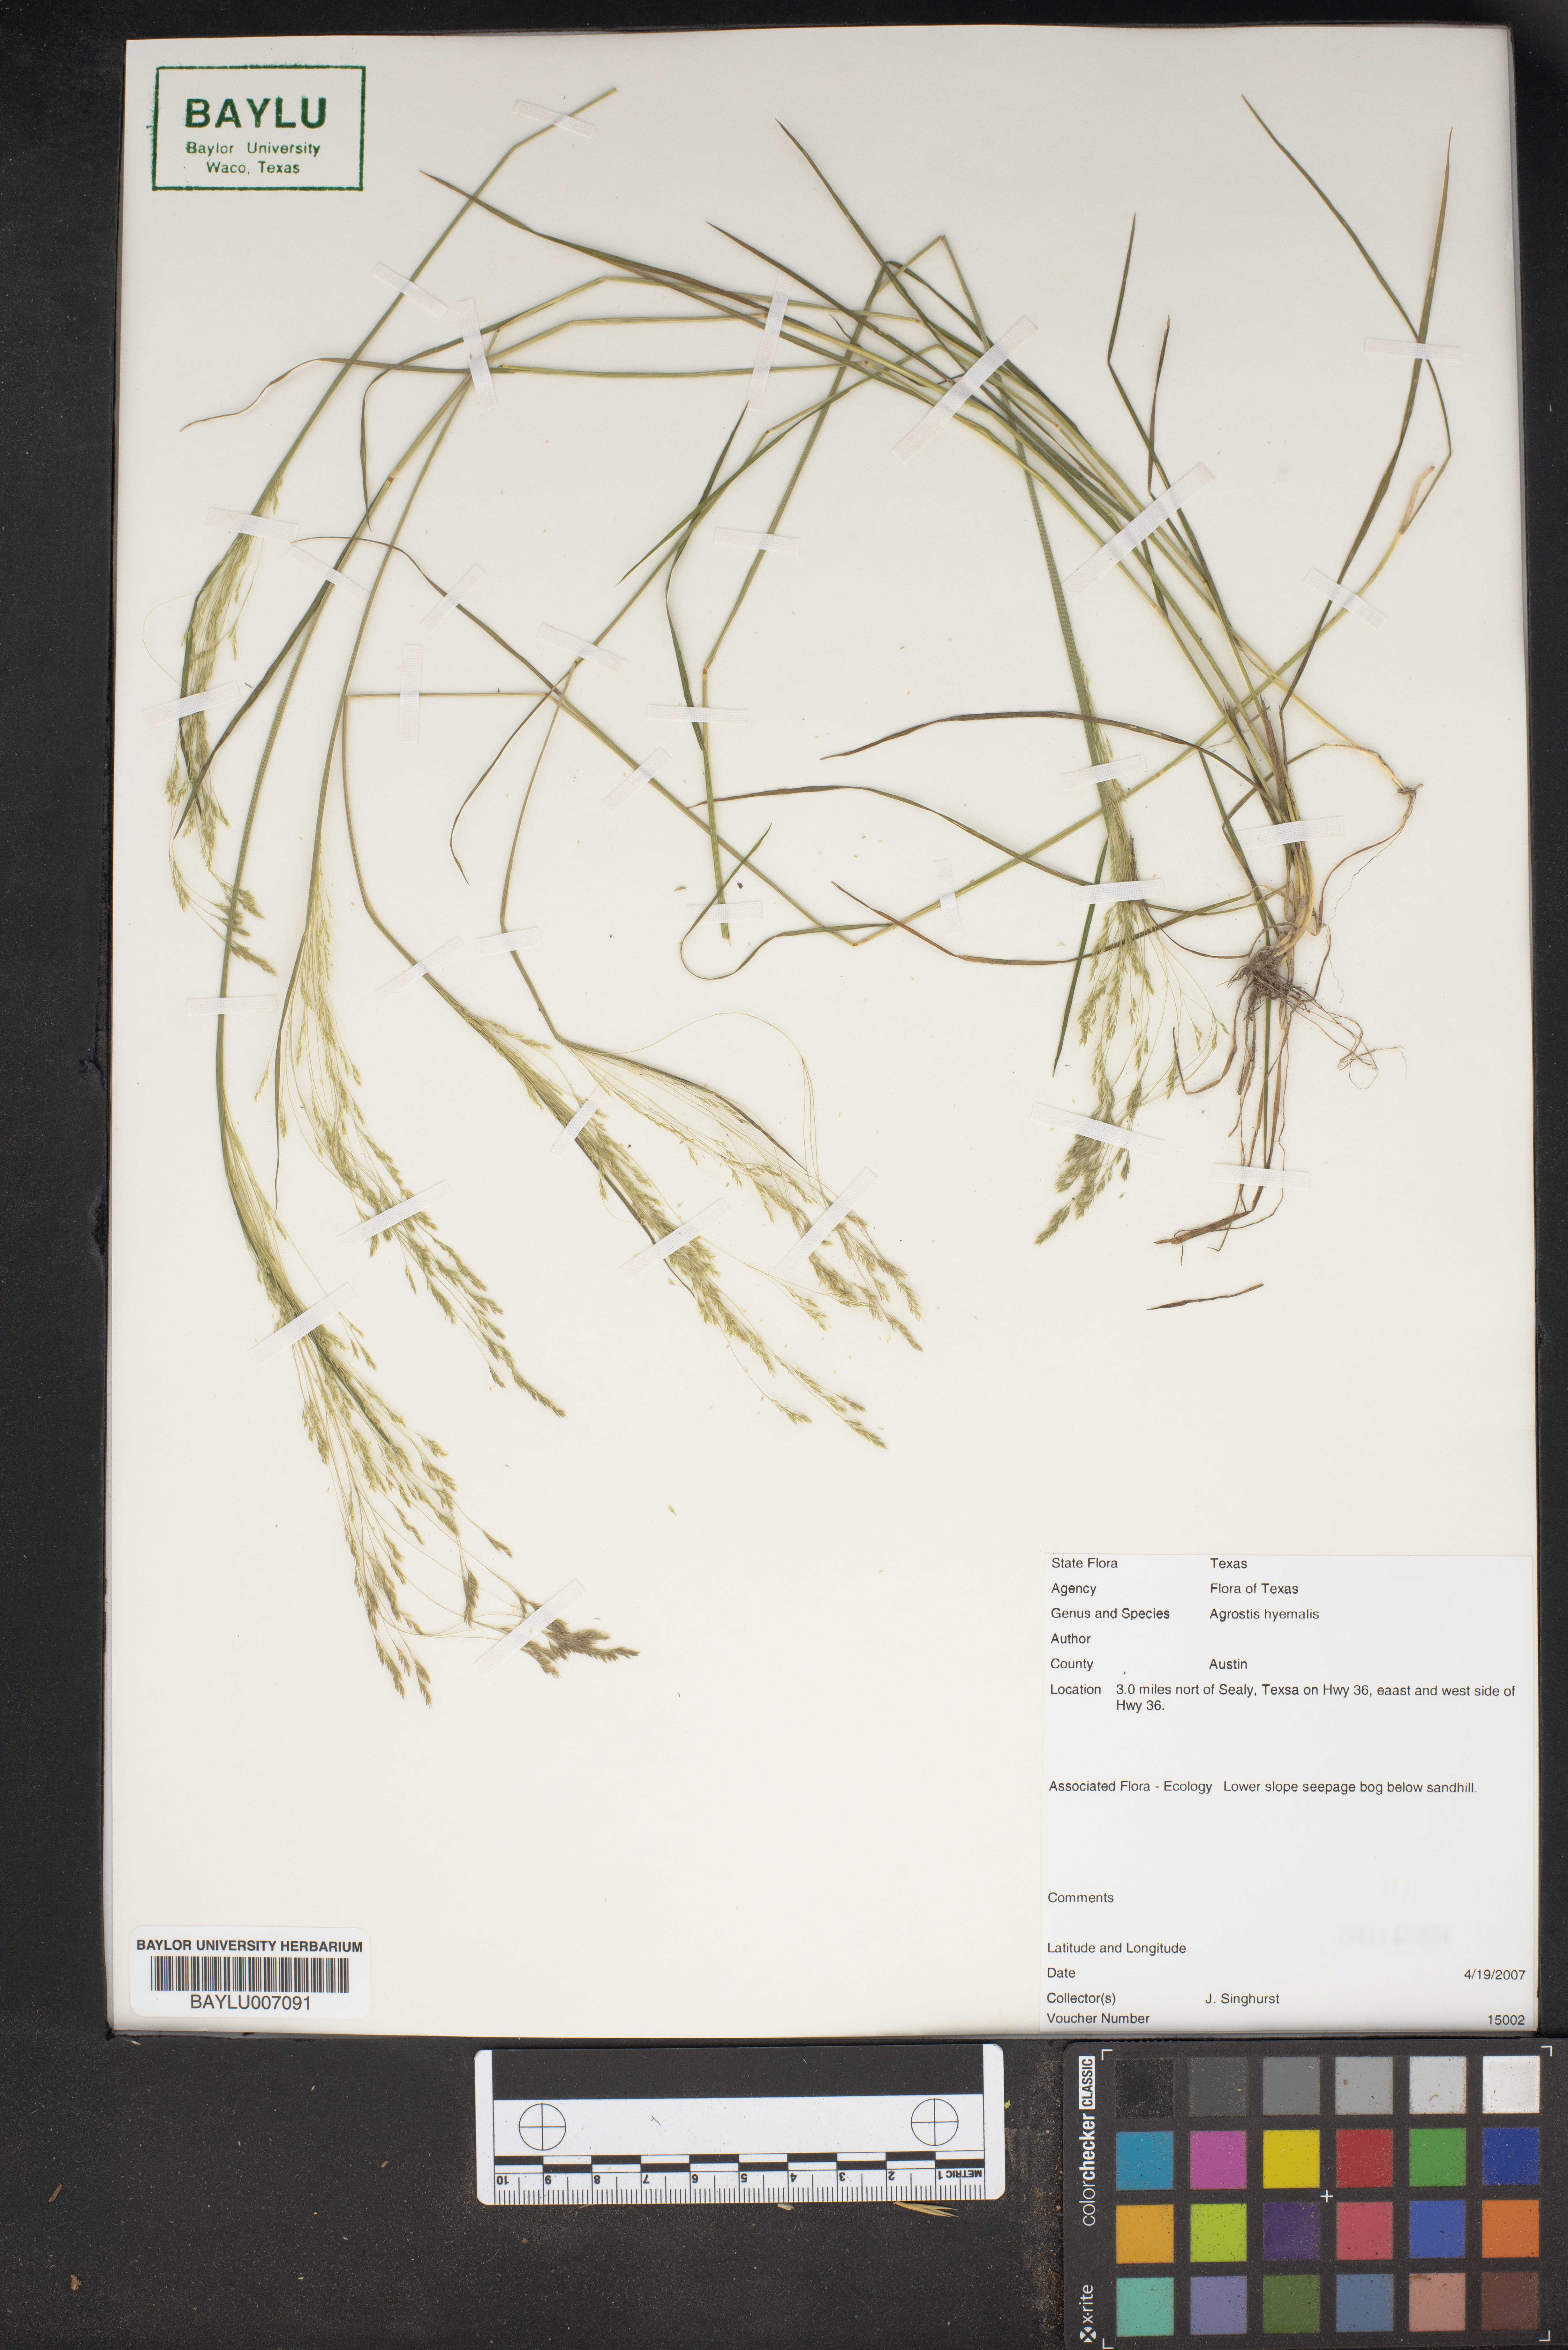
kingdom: Plantae
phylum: Tracheophyta
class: Liliopsida
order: Poales
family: Poaceae
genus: Agrostis
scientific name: Agrostis hyemalis
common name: Small bent
